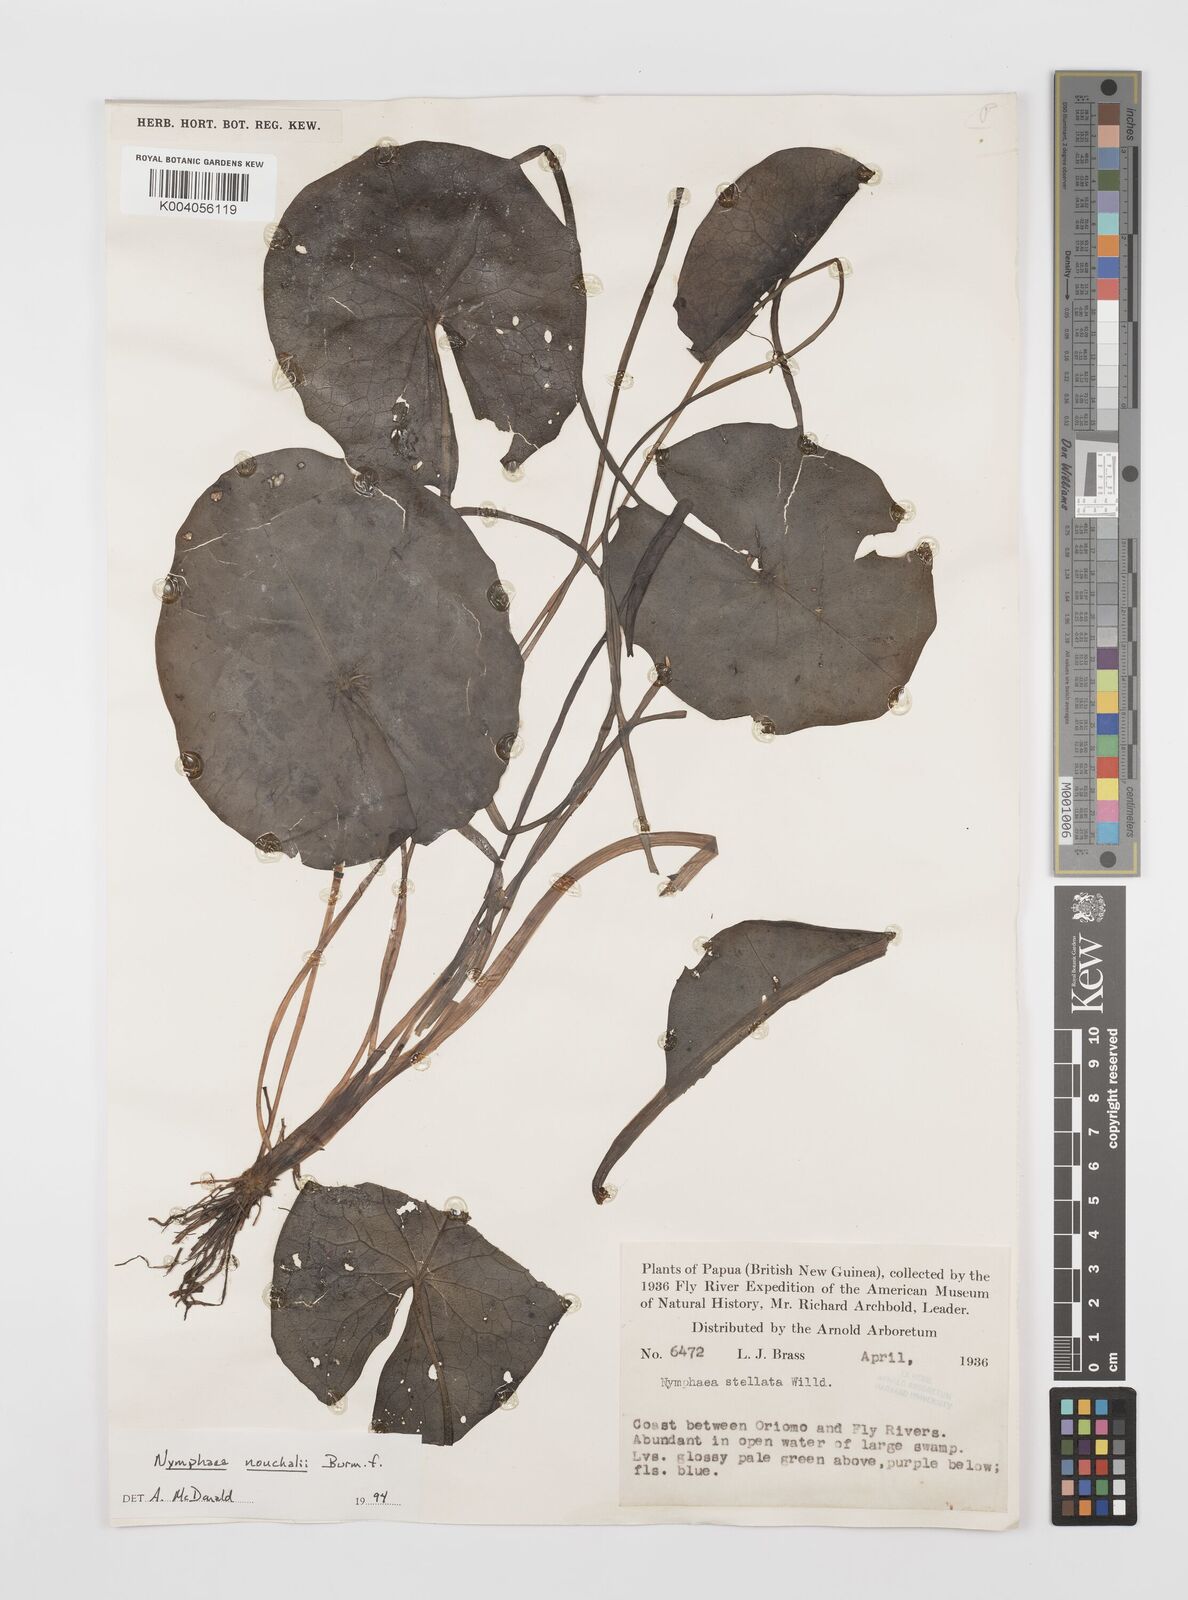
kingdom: Plantae
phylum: Tracheophyta
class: Magnoliopsida
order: Nymphaeales
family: Nymphaeaceae
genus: Nymphaea
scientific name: Nymphaea
